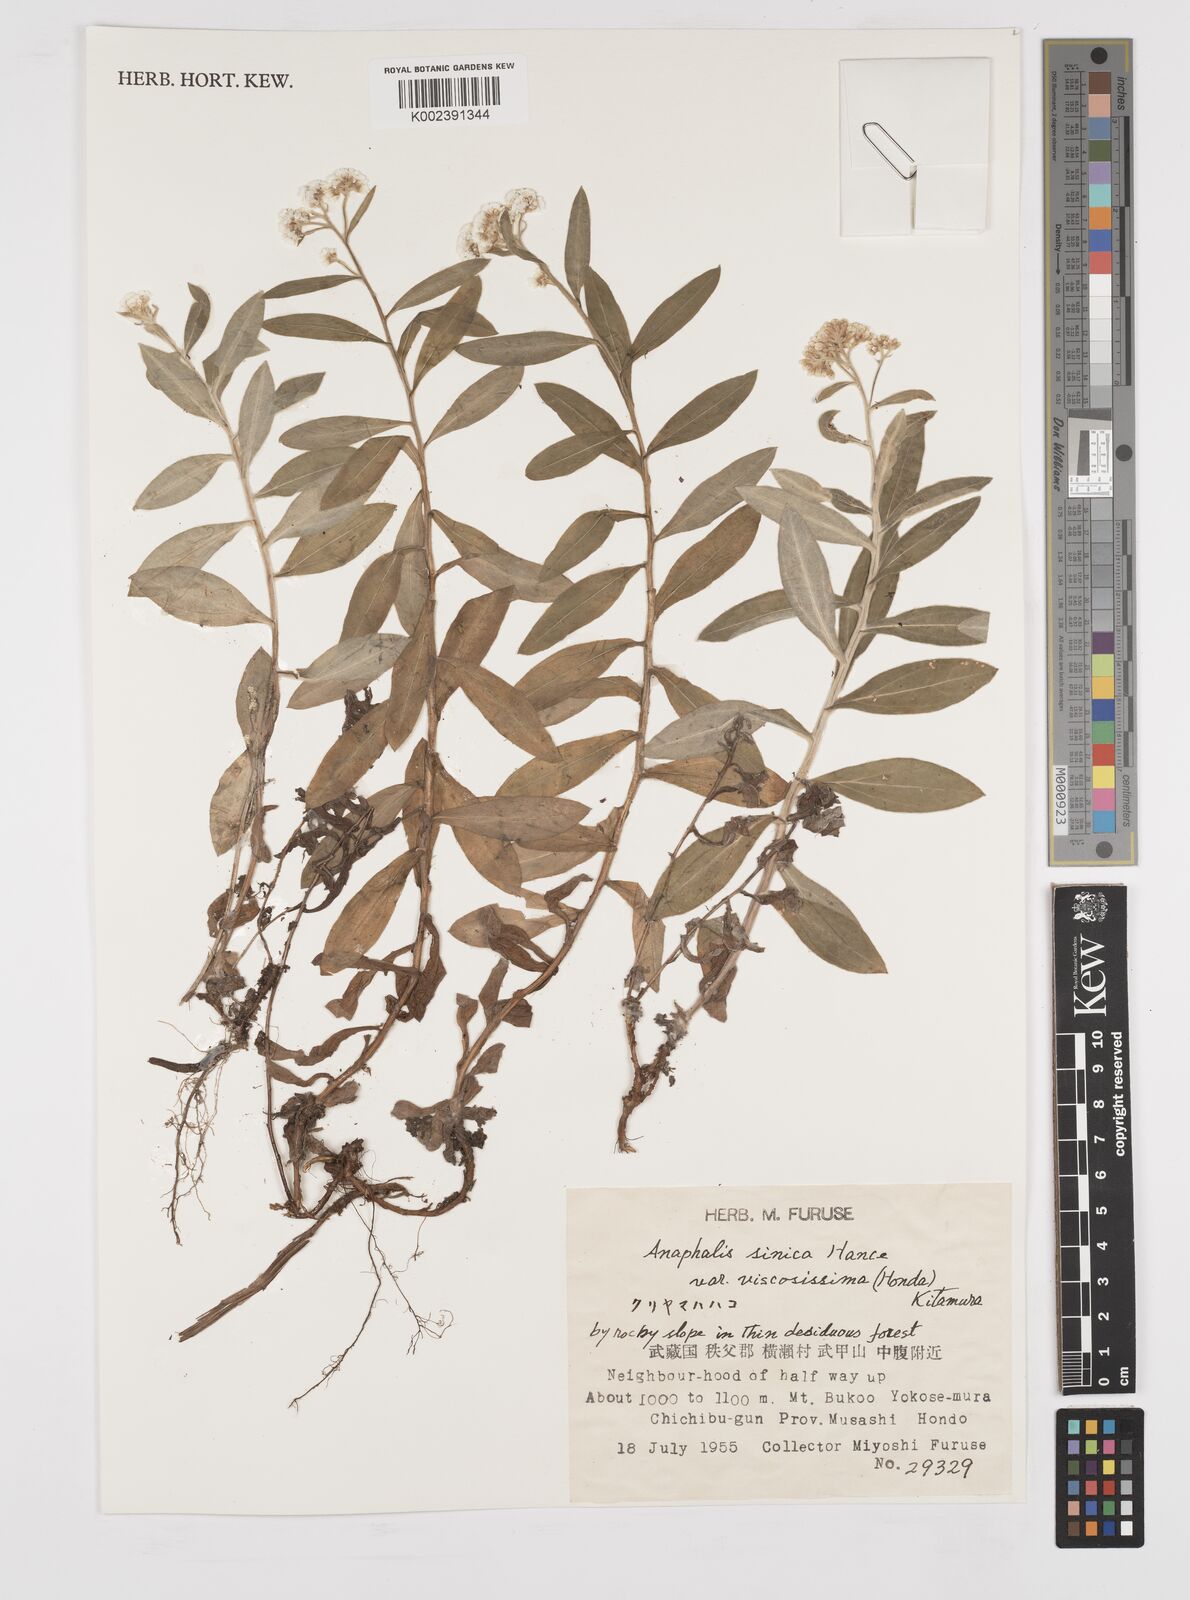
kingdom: Plantae
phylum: Tracheophyta
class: Magnoliopsida
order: Asterales
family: Asteraceae
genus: Anaphalis
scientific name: Anaphalis sinica
